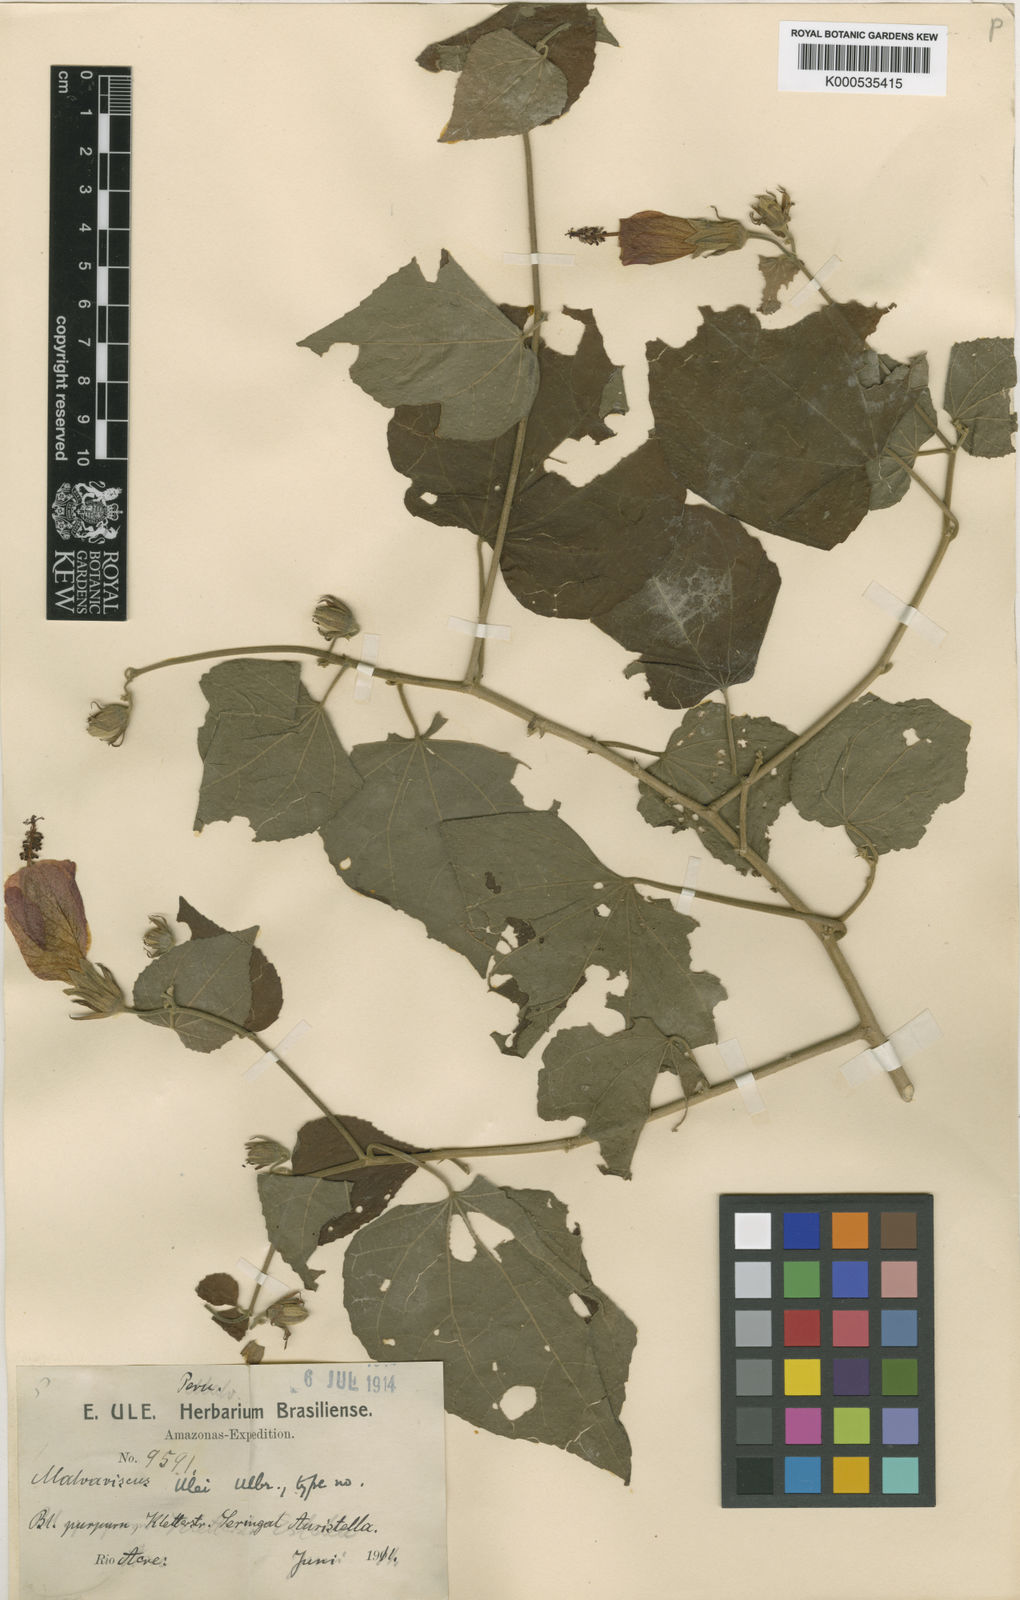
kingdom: Plantae
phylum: Tracheophyta
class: Magnoliopsida
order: Malvales
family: Malvaceae
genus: Malvaviscus
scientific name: Malvaviscus penduliflorus
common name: Mazapan
